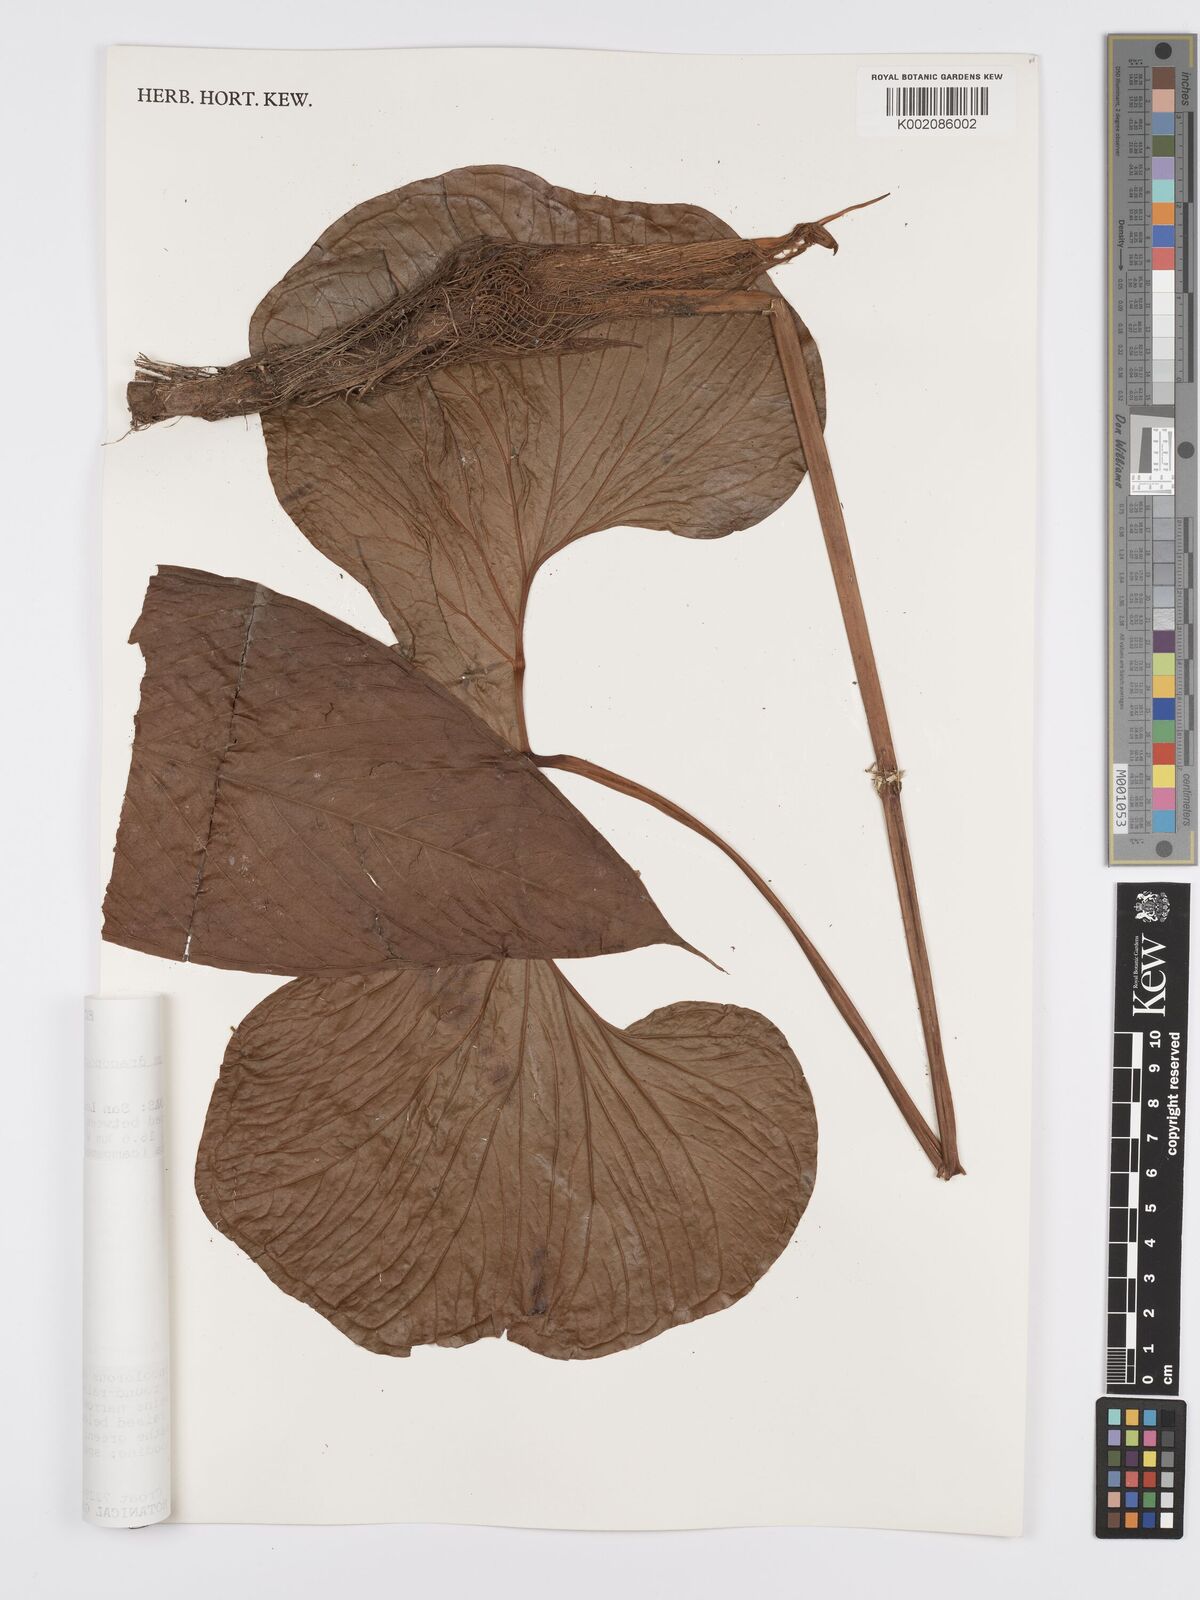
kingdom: Plantae
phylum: Tracheophyta
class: Liliopsida
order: Alismatales
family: Araceae
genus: Anthurium
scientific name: Anthurium draconopterum
